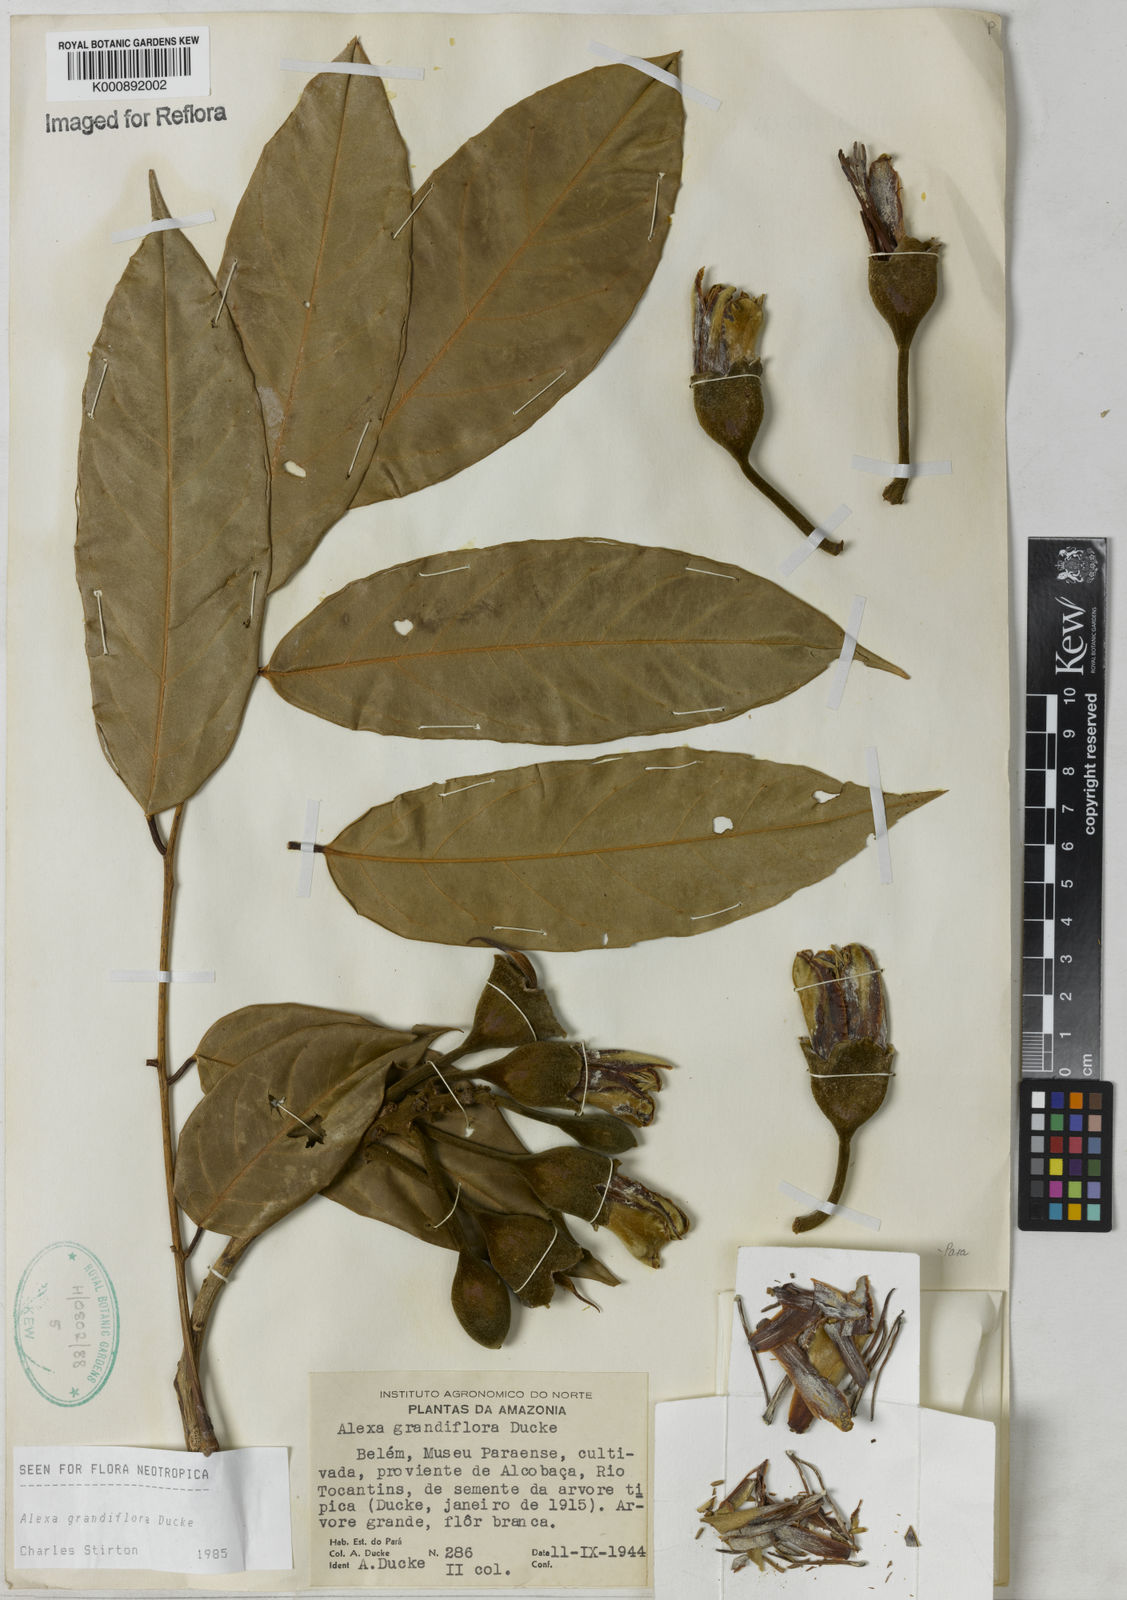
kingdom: Plantae
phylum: Tracheophyta
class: Magnoliopsida
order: Fabales
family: Fabaceae
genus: Alexa
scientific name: Alexa grandiflora
